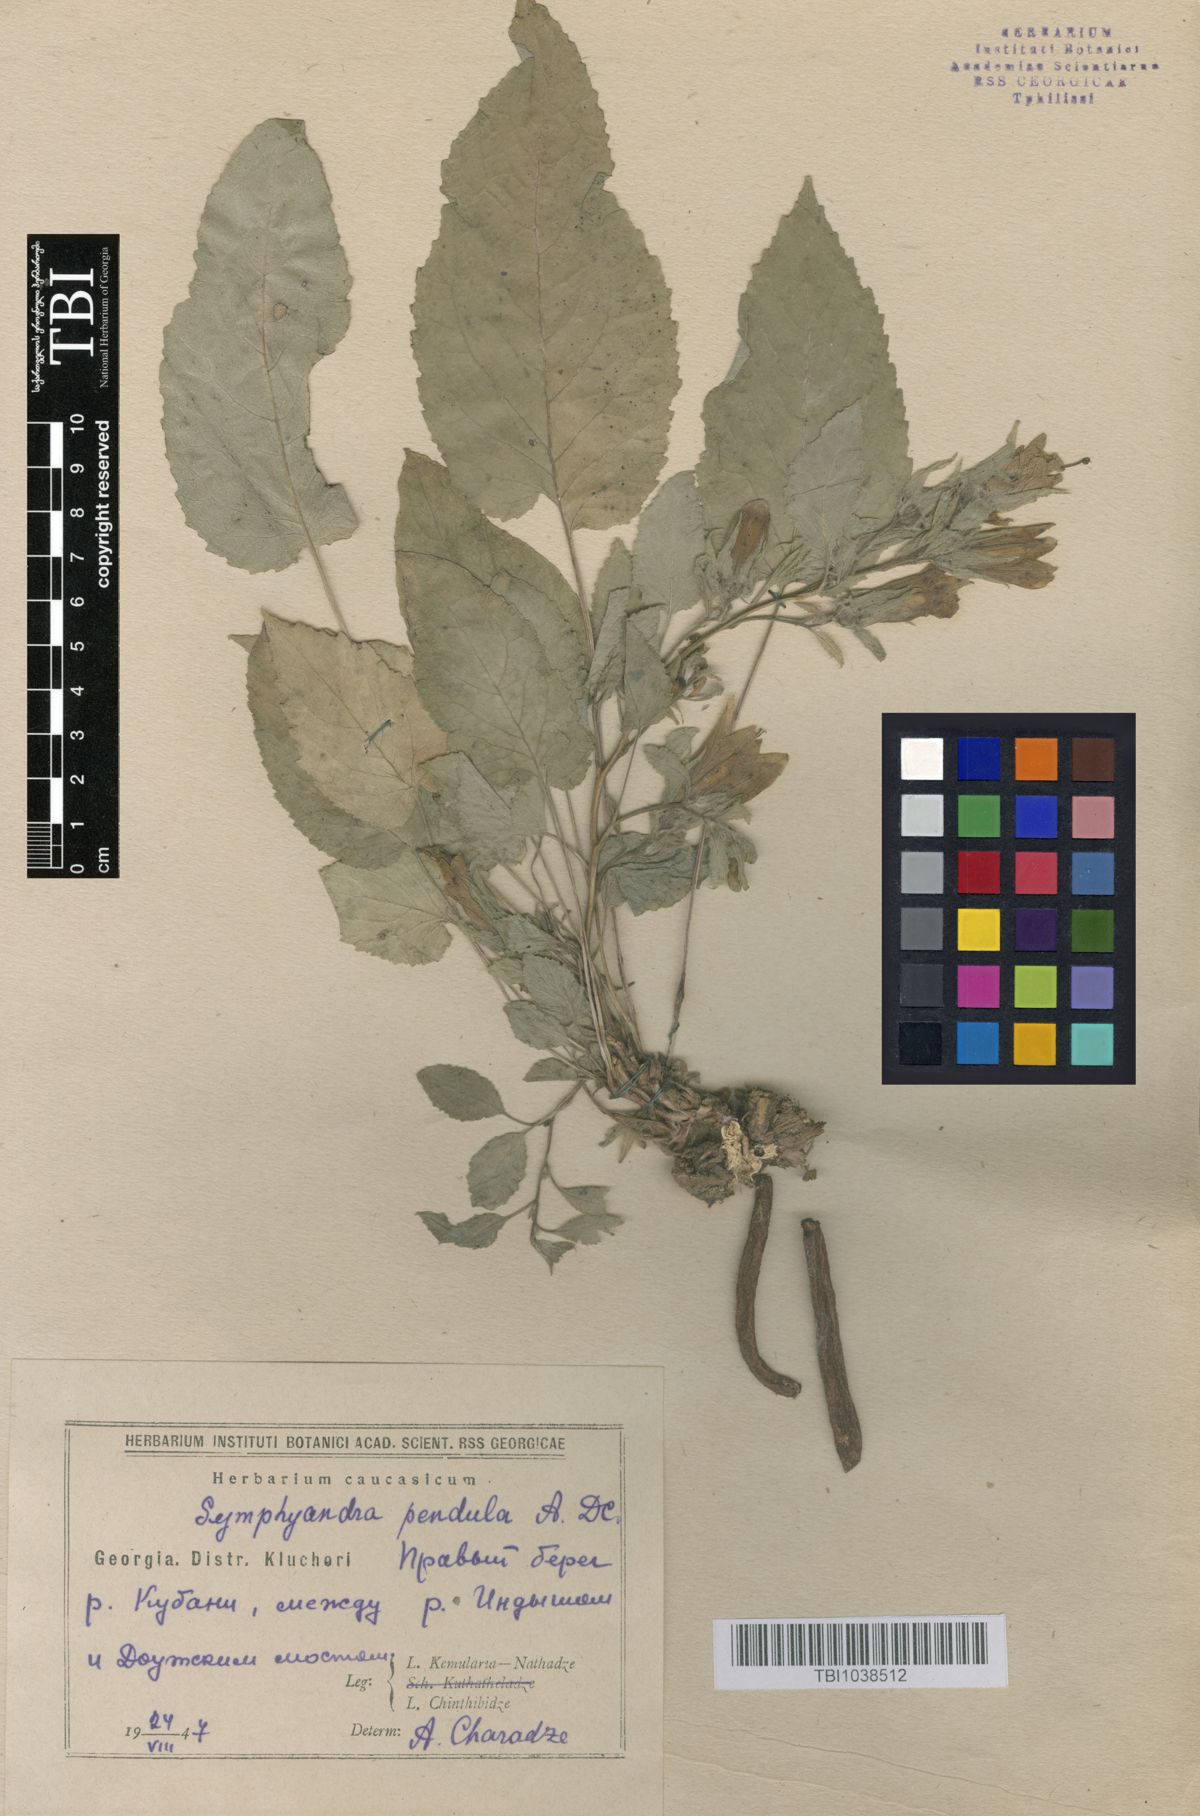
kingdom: Plantae
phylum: Tracheophyta
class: Magnoliopsida
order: Asterales
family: Campanulaceae
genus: Campanula
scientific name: Campanula pendula
